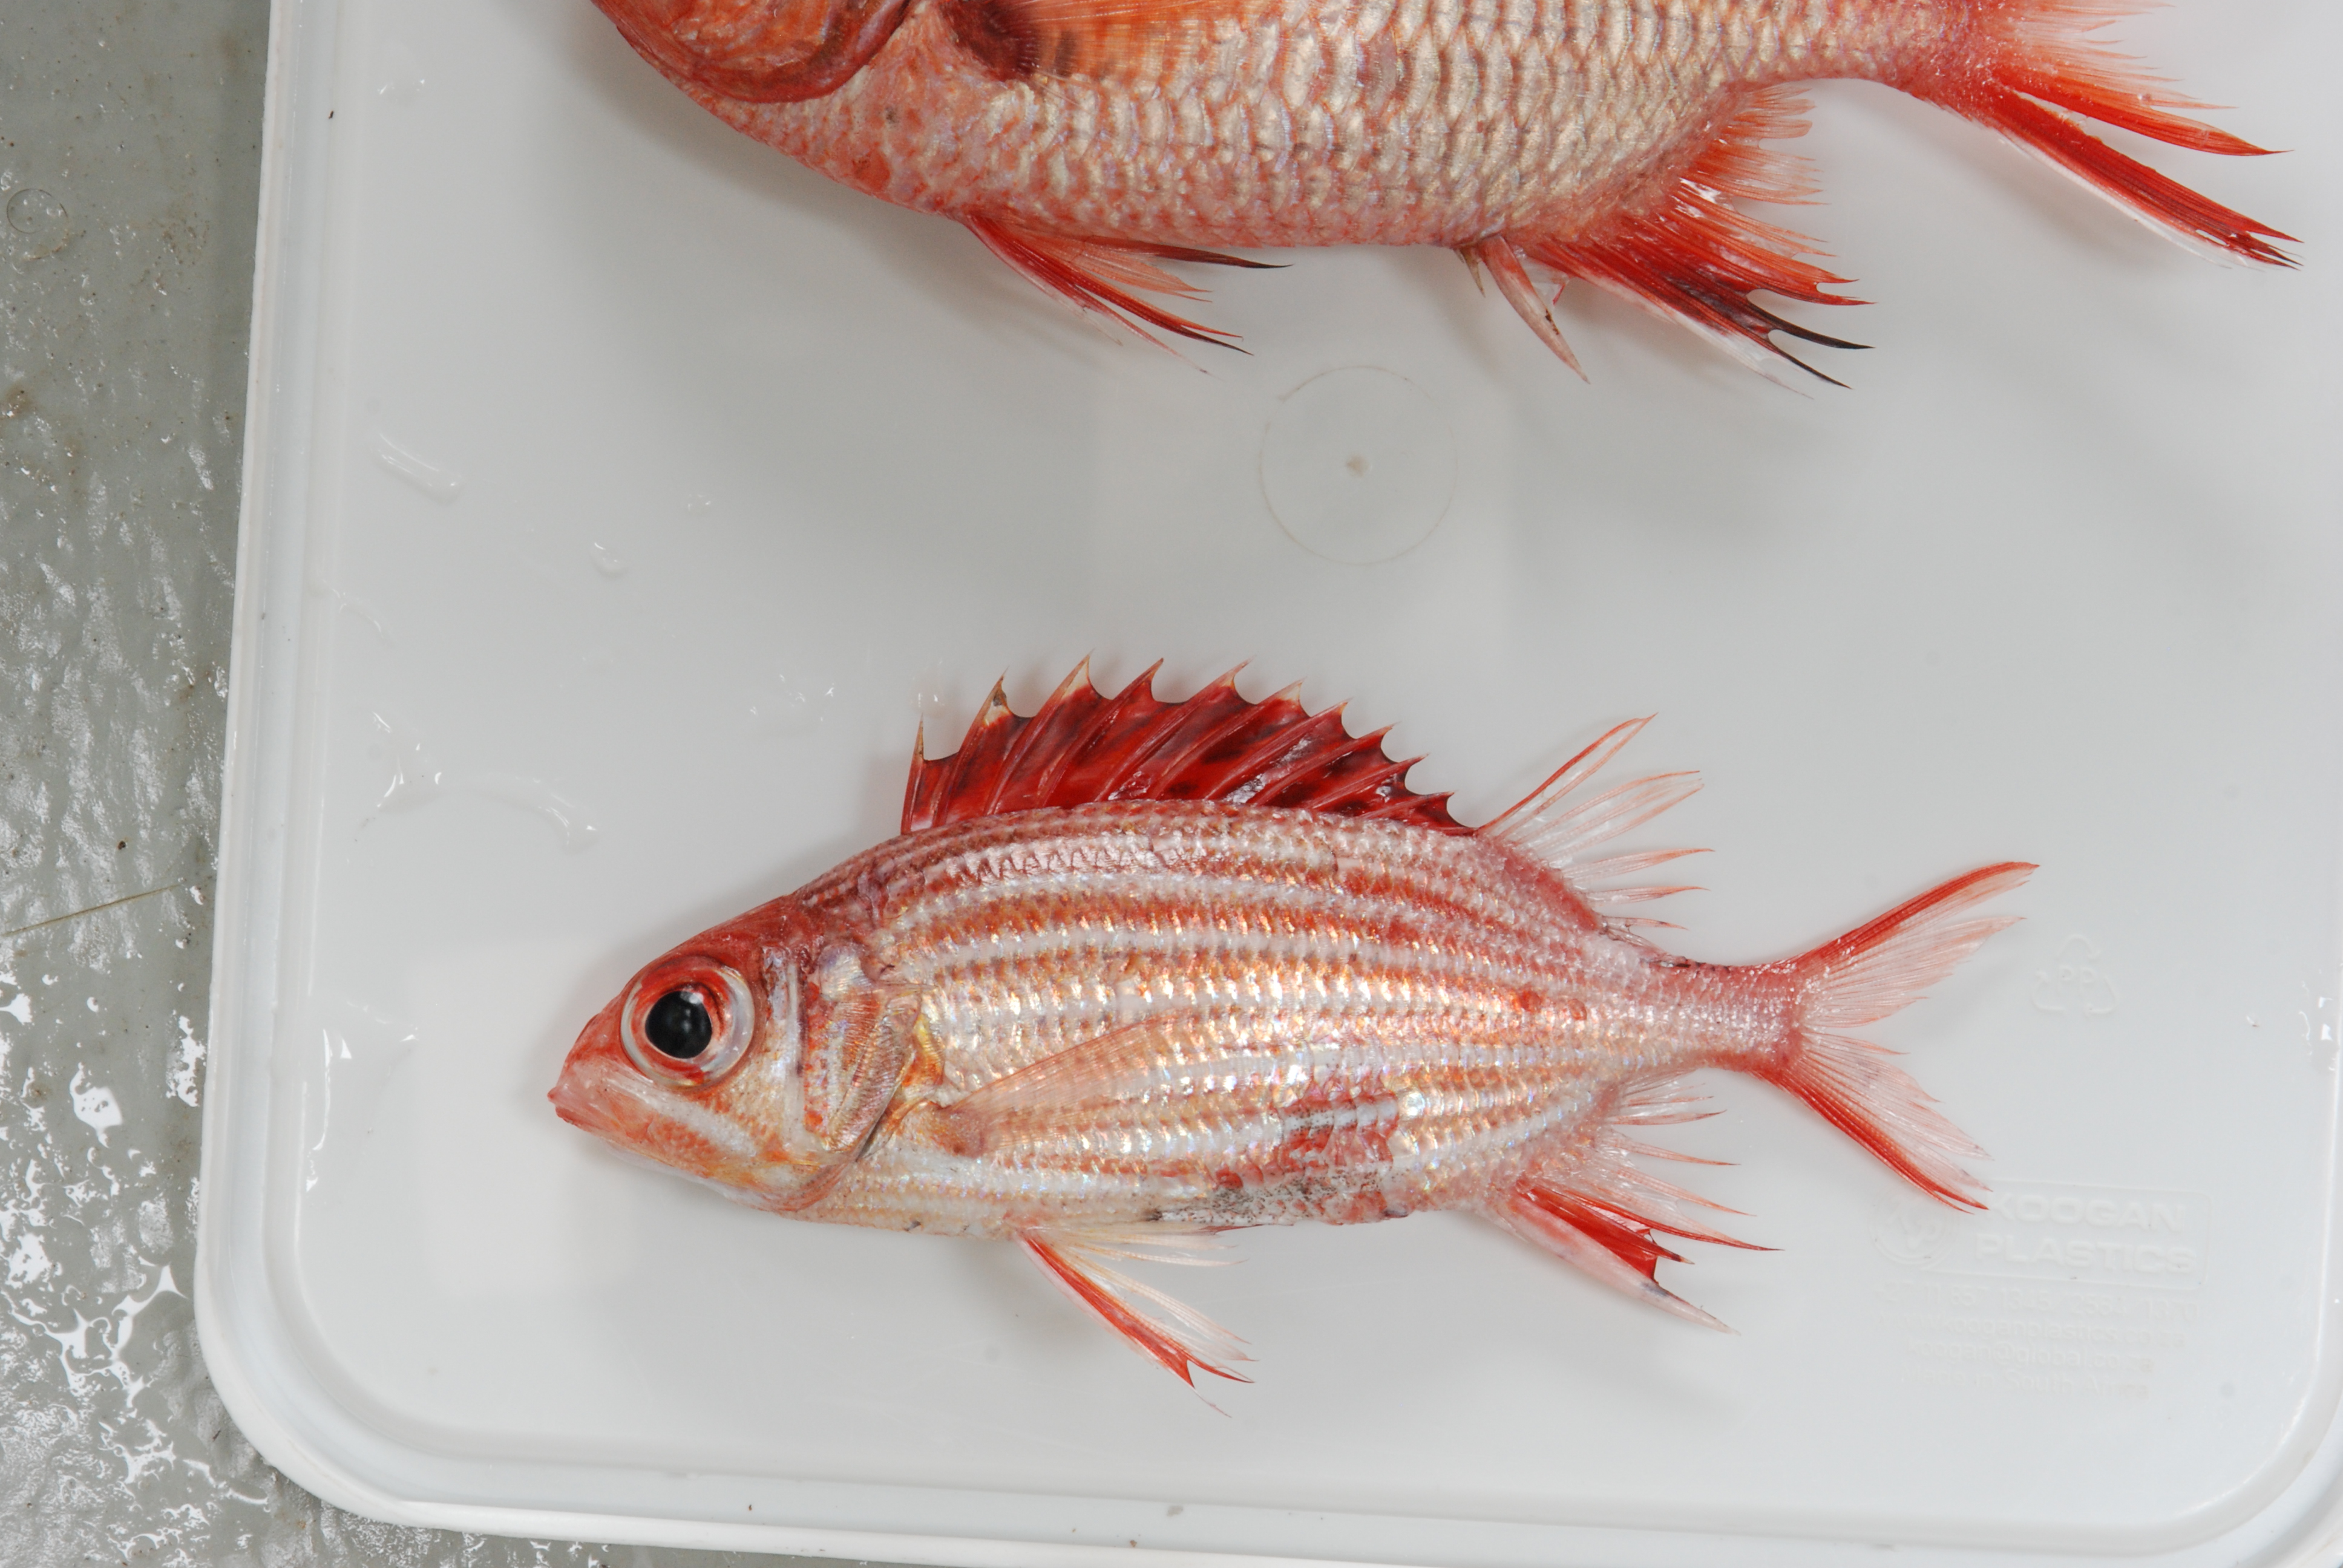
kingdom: Animalia
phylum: Chordata
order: Beryciformes
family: Holocentridae
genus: Sargocentron
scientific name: Sargocentron diadema
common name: Crown squirrelfish
